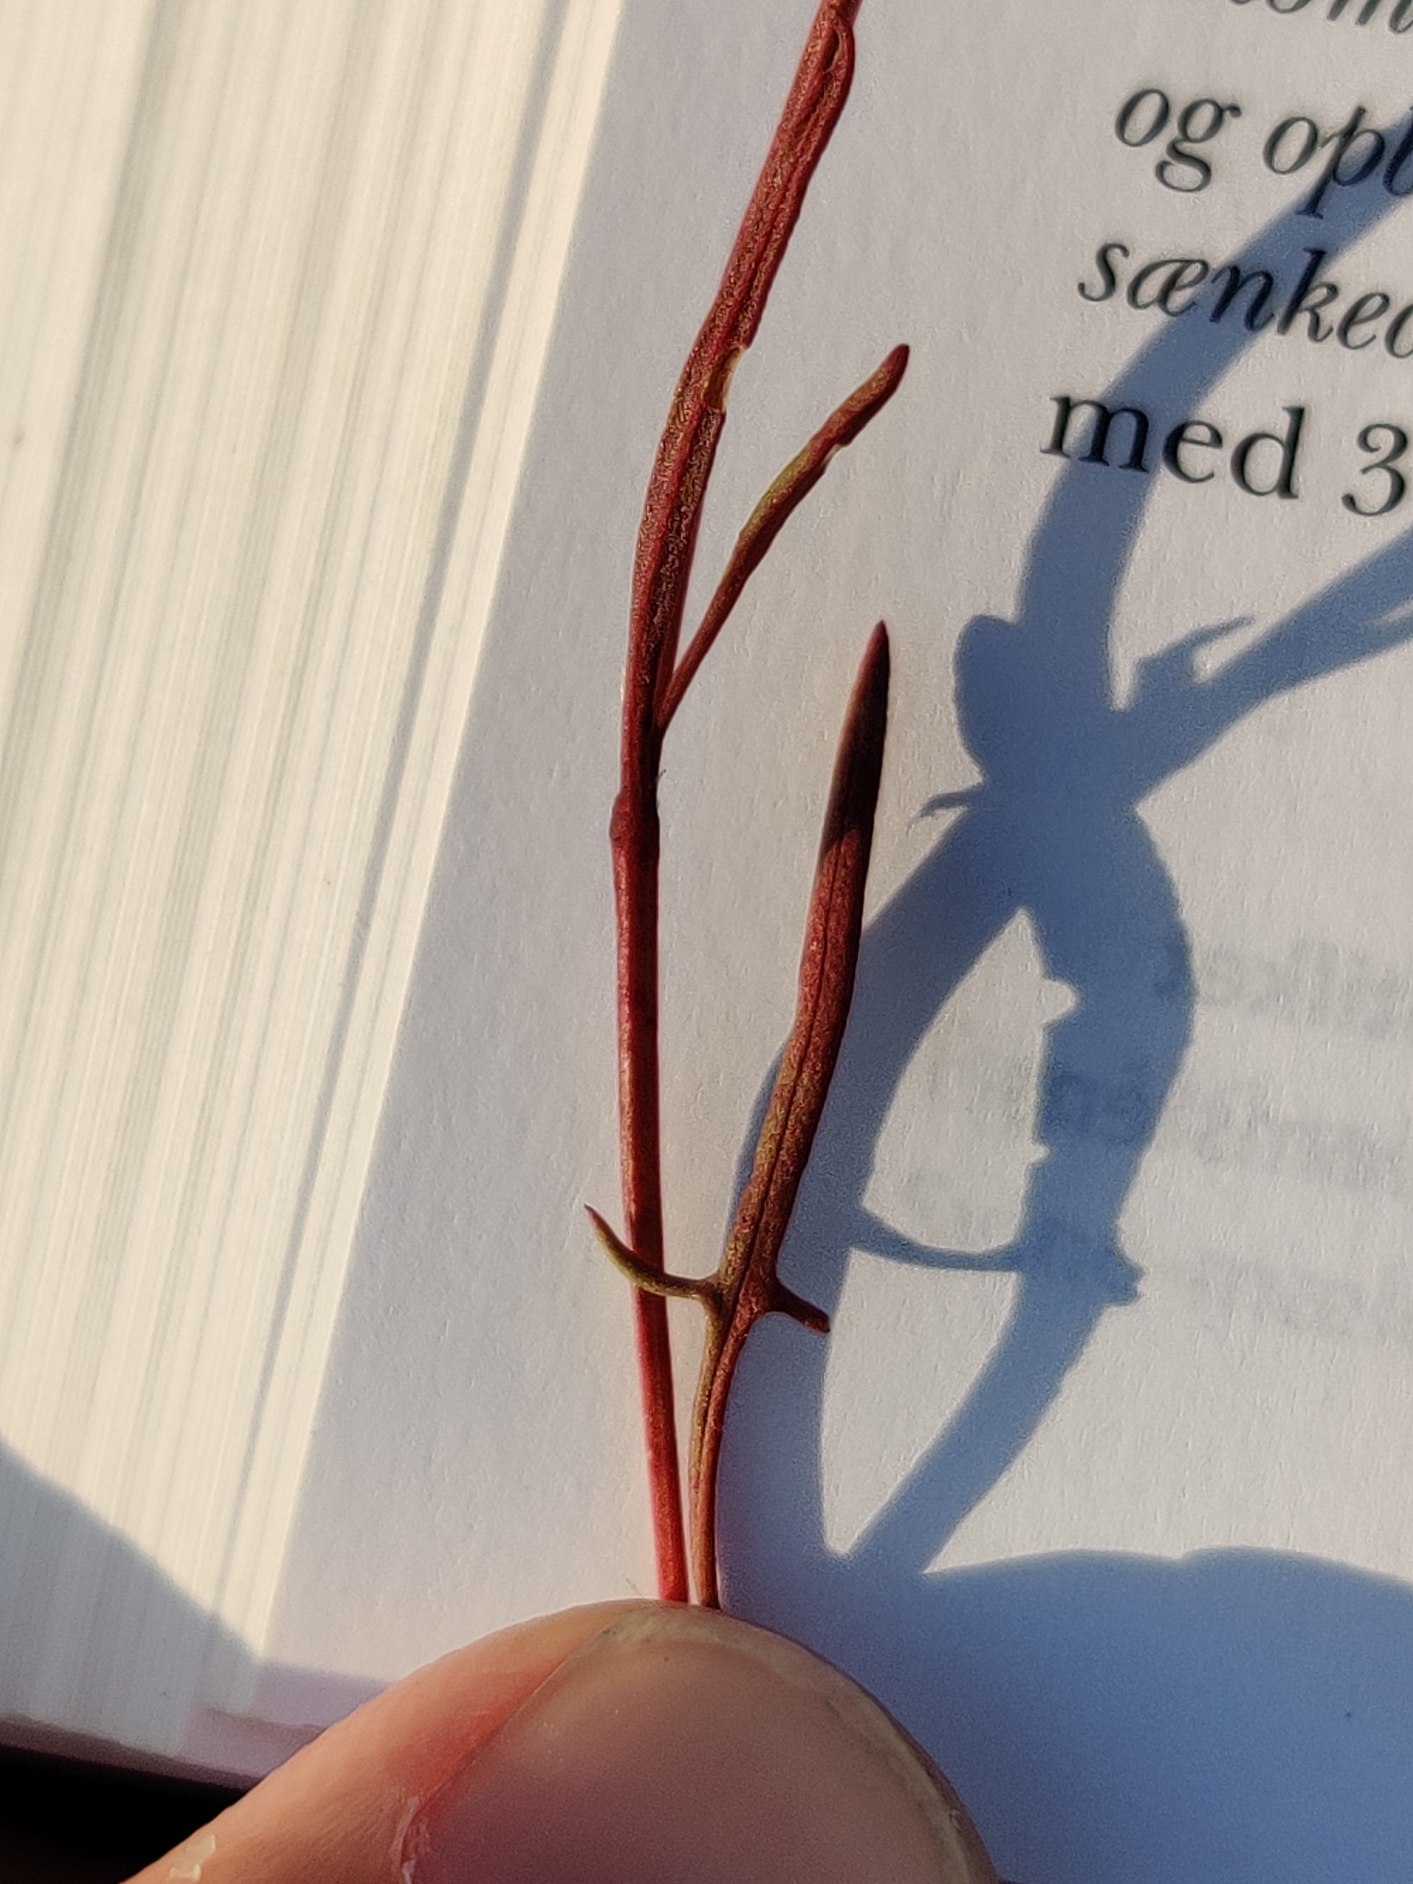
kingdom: Plantae
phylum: Tracheophyta
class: Magnoliopsida
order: Caryophyllales
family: Polygonaceae
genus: Rumex
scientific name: Rumex acetosella
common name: Rødknæ
